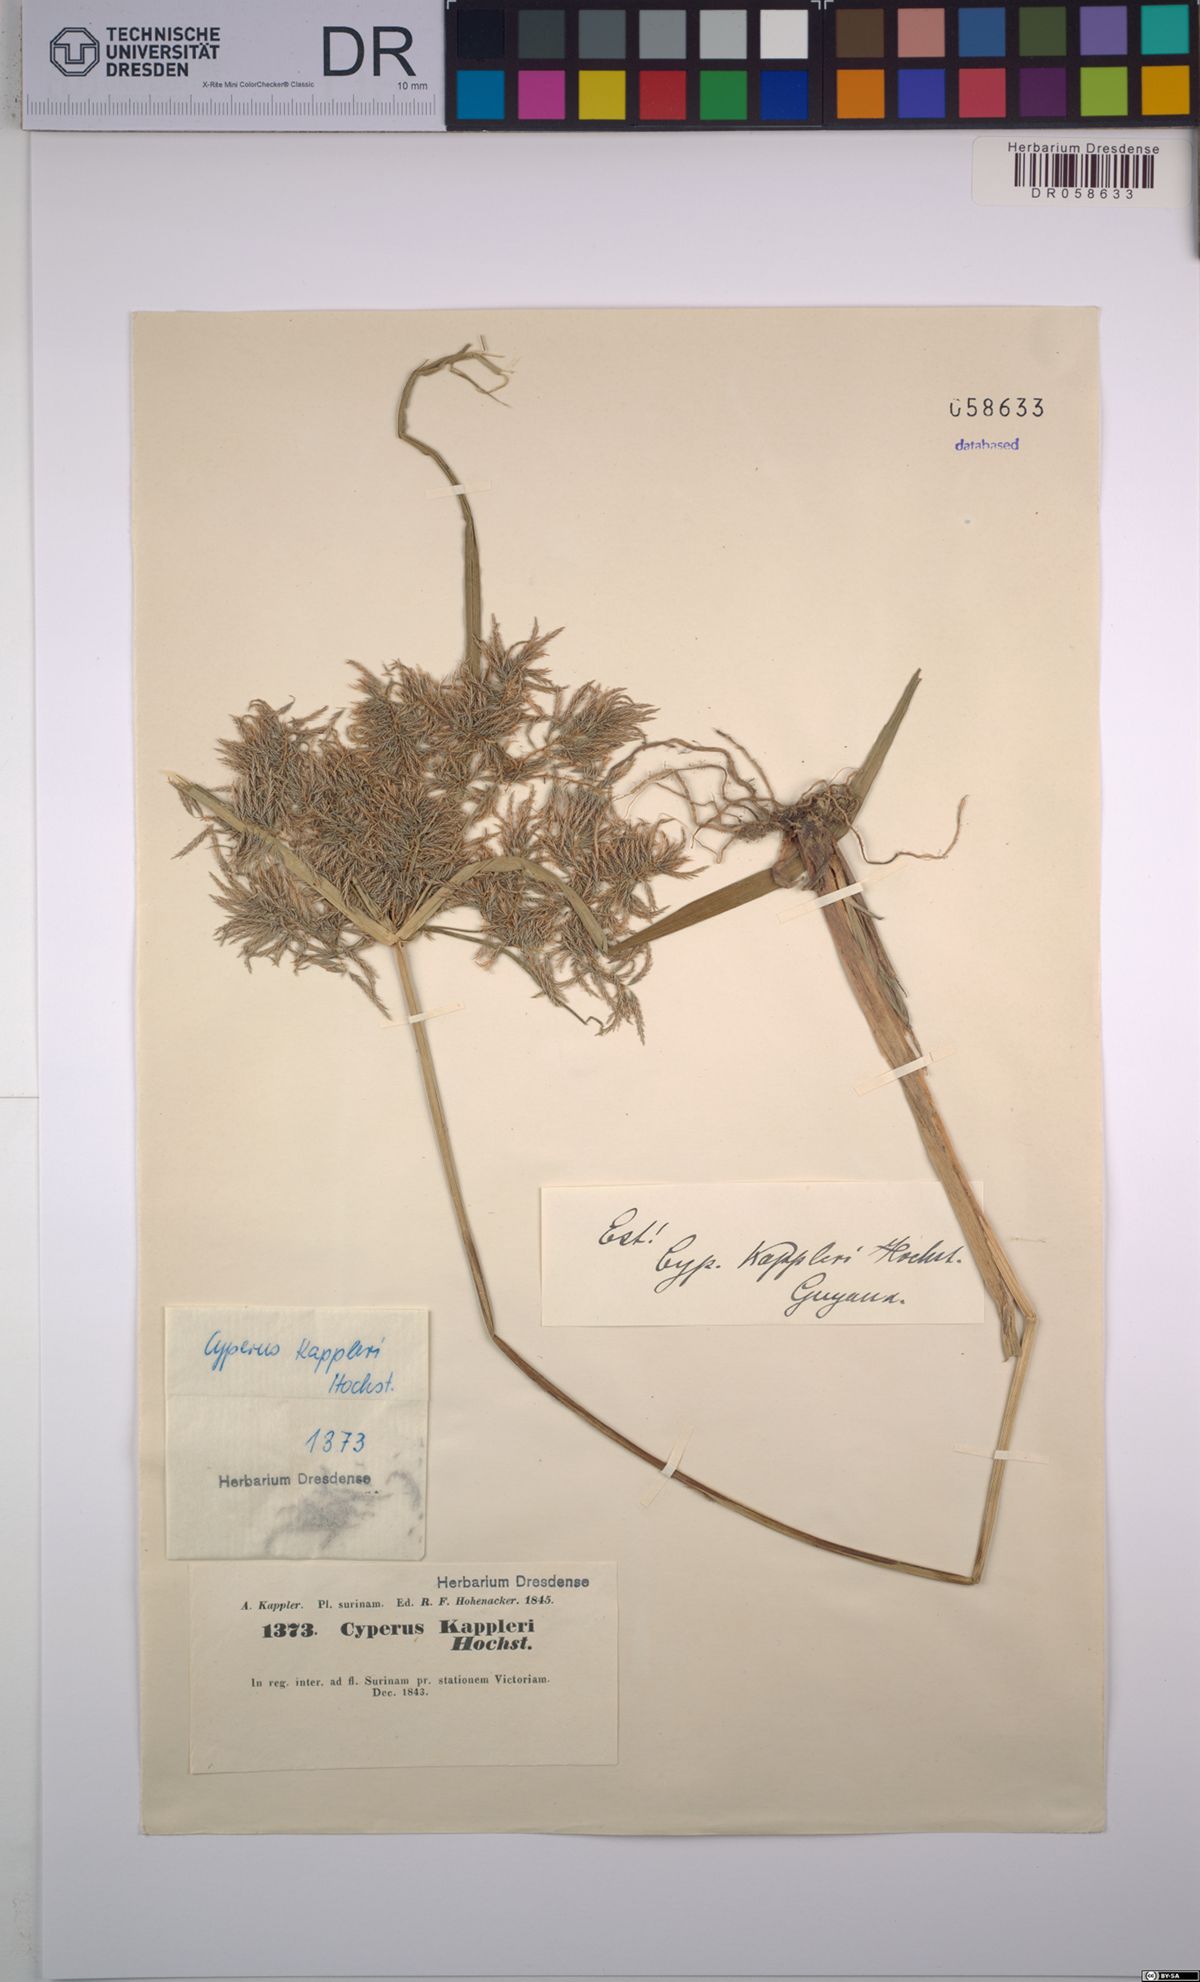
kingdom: Plantae
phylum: Tracheophyta
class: Liliopsida
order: Poales
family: Cyperaceae
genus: Cyperus
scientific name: Cyperus kappleri
